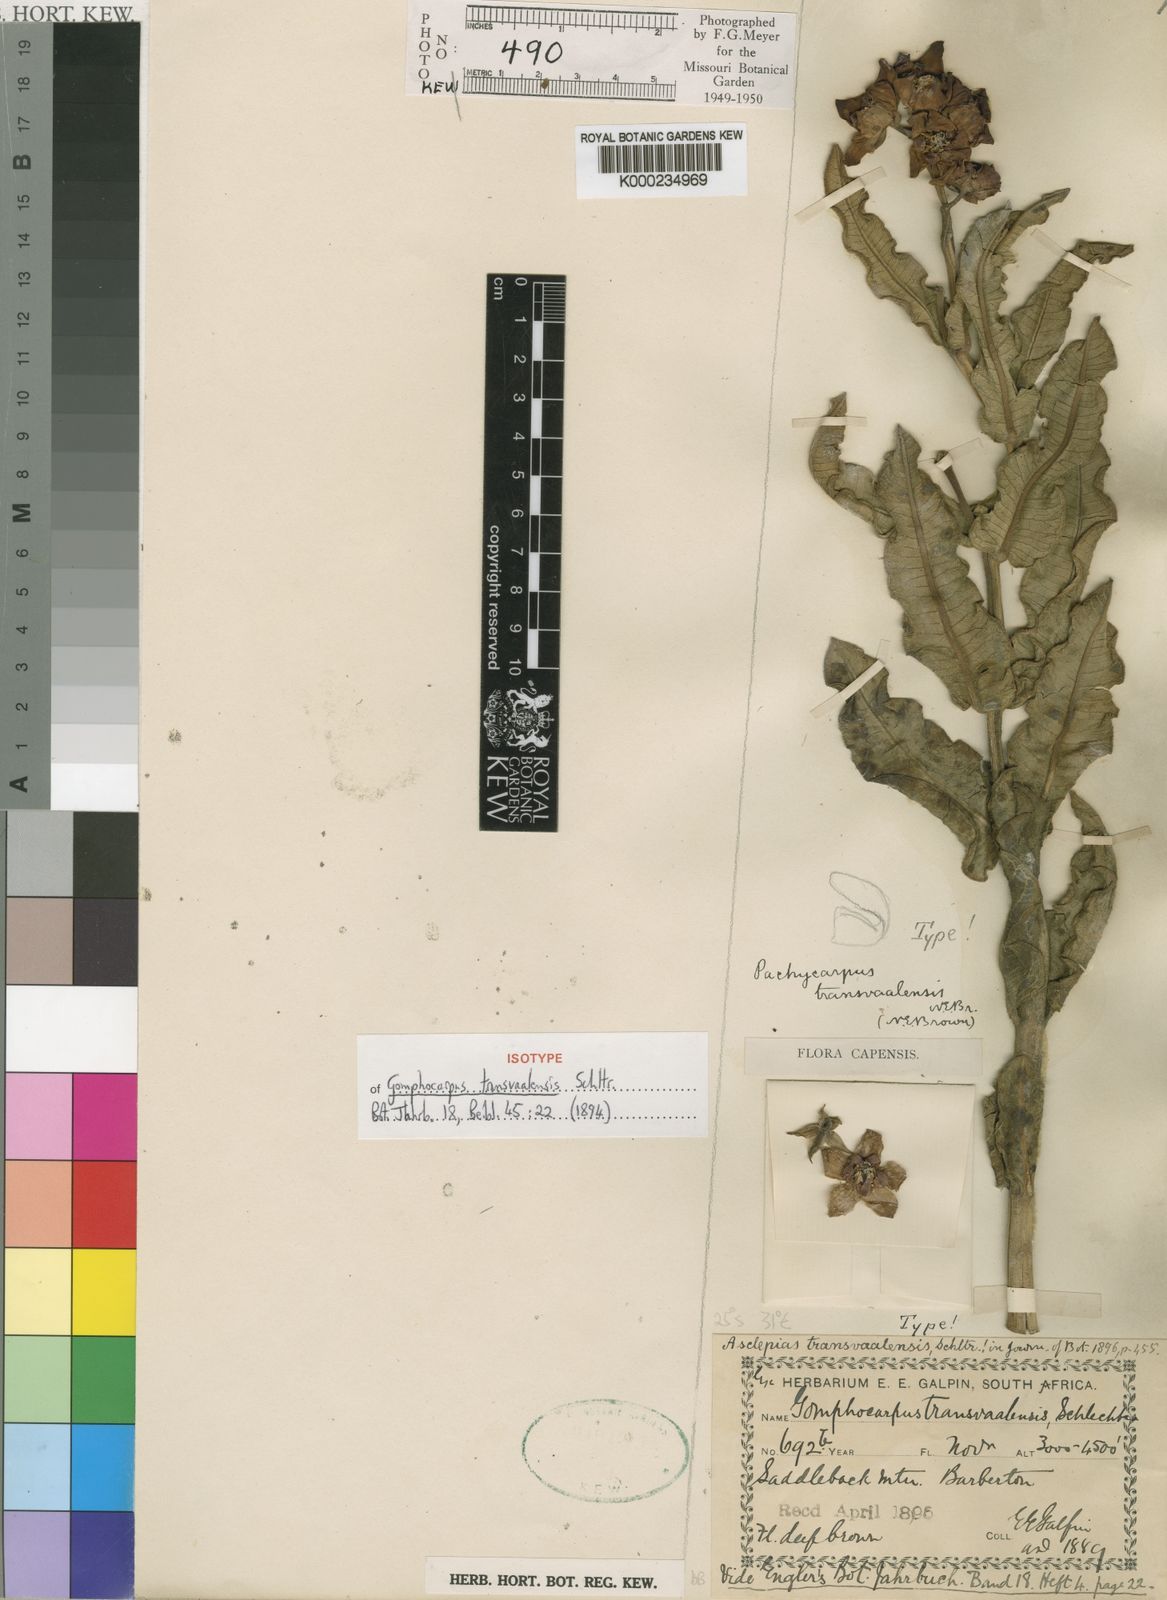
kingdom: Plantae
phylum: Tracheophyta
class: Magnoliopsida
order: Gentianales
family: Apocynaceae
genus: Pachycarpus
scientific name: Pachycarpus concolor
